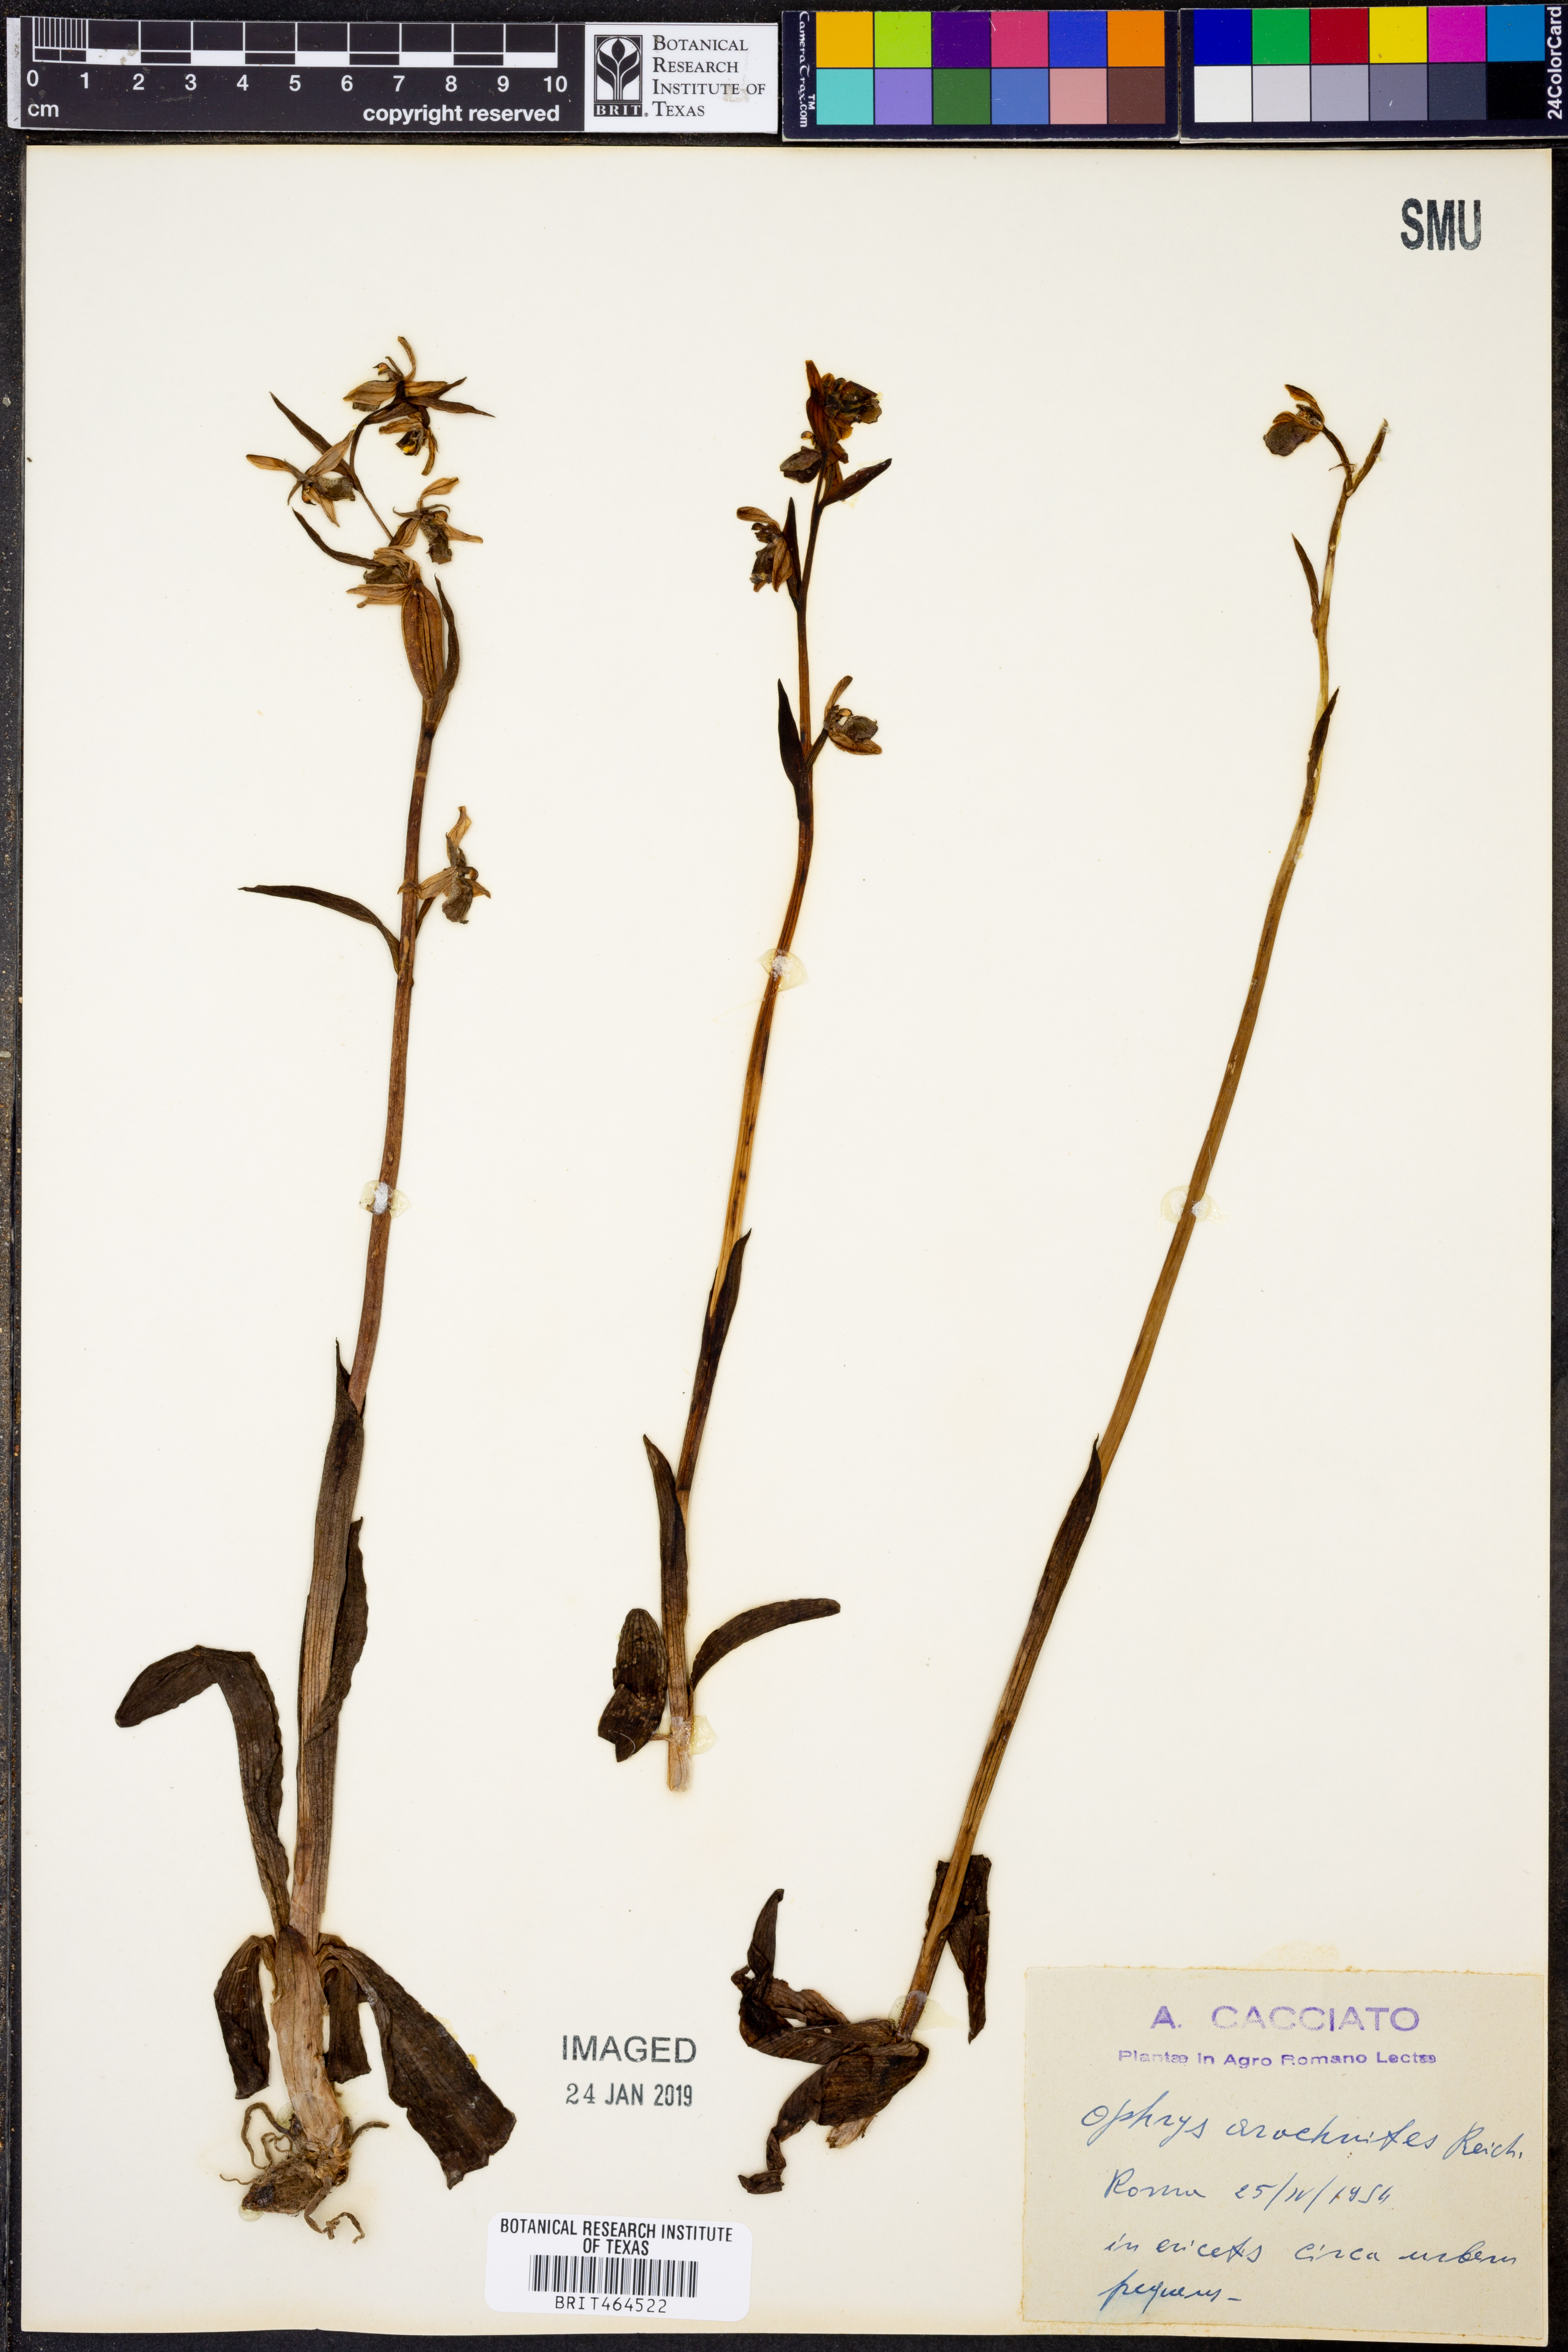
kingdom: Plantae
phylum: Tracheophyta
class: Liliopsida
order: Asparagales
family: Orchidaceae
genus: Ophrys
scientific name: Ophrys arachnites
